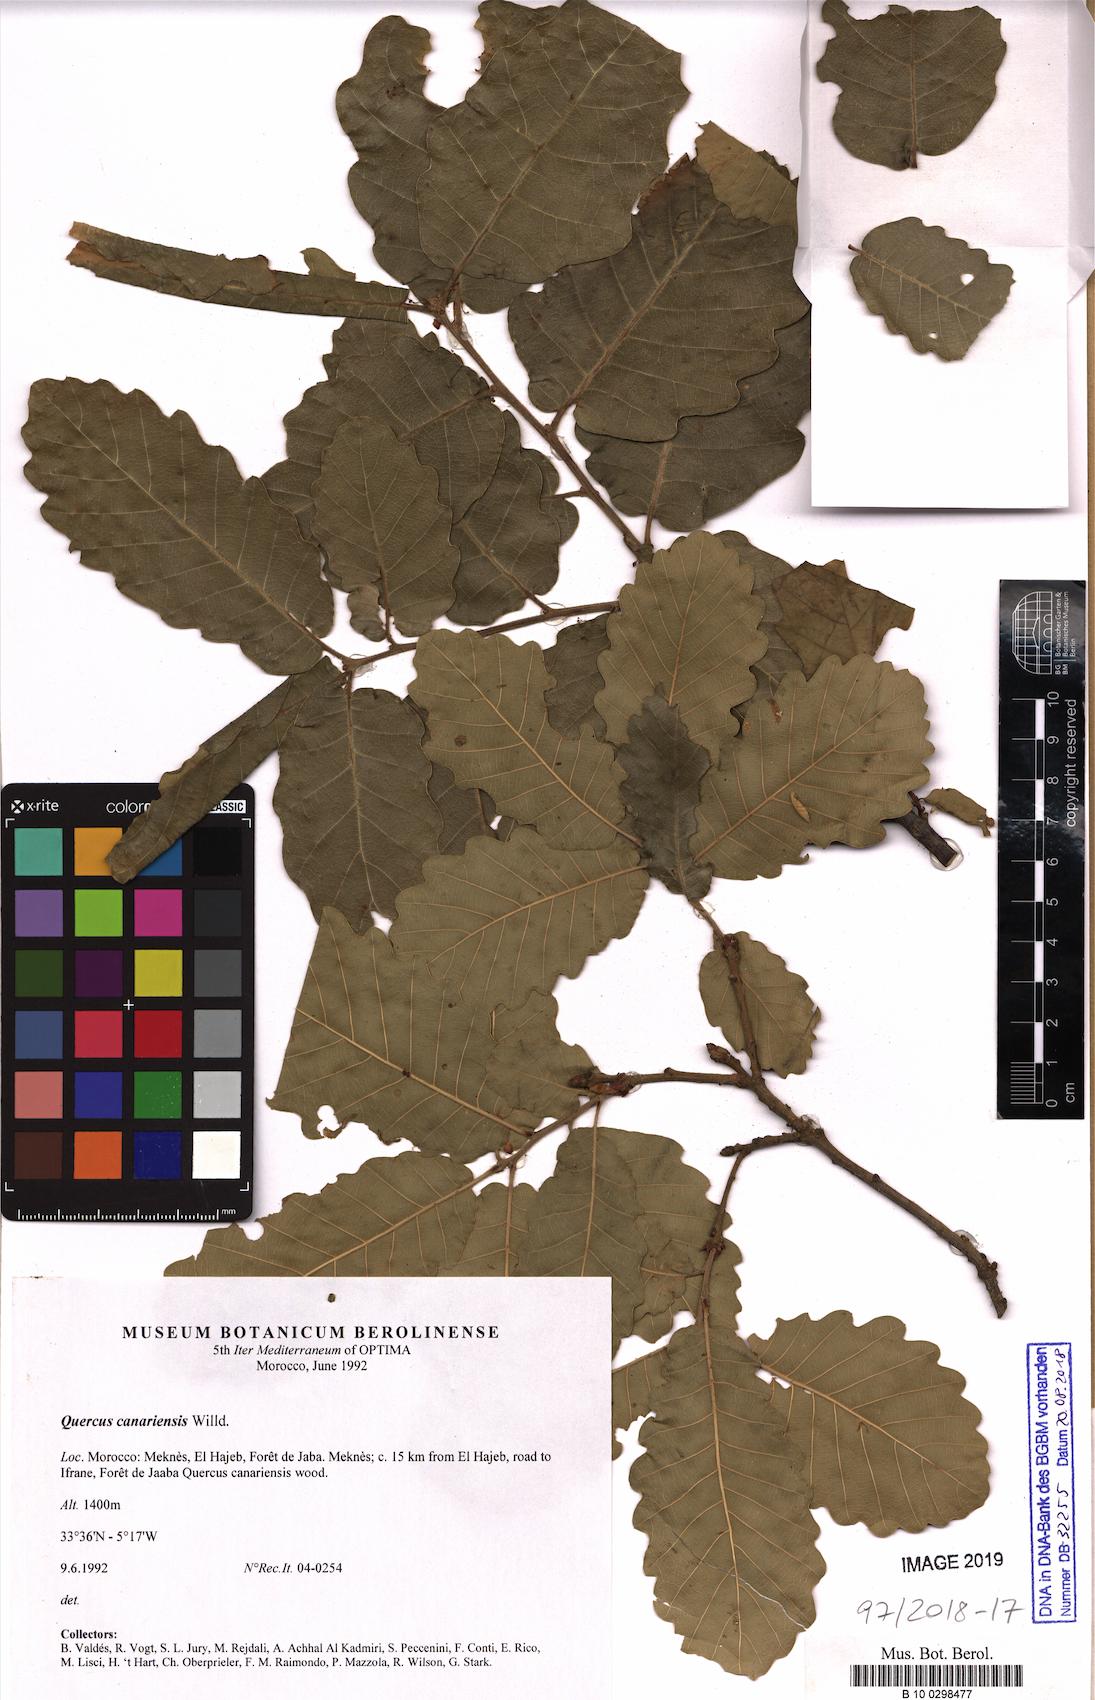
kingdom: Plantae
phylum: Tracheophyta
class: Magnoliopsida
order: Fagales
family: Fagaceae
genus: Quercus
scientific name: Quercus canariensis
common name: Algerian oak
